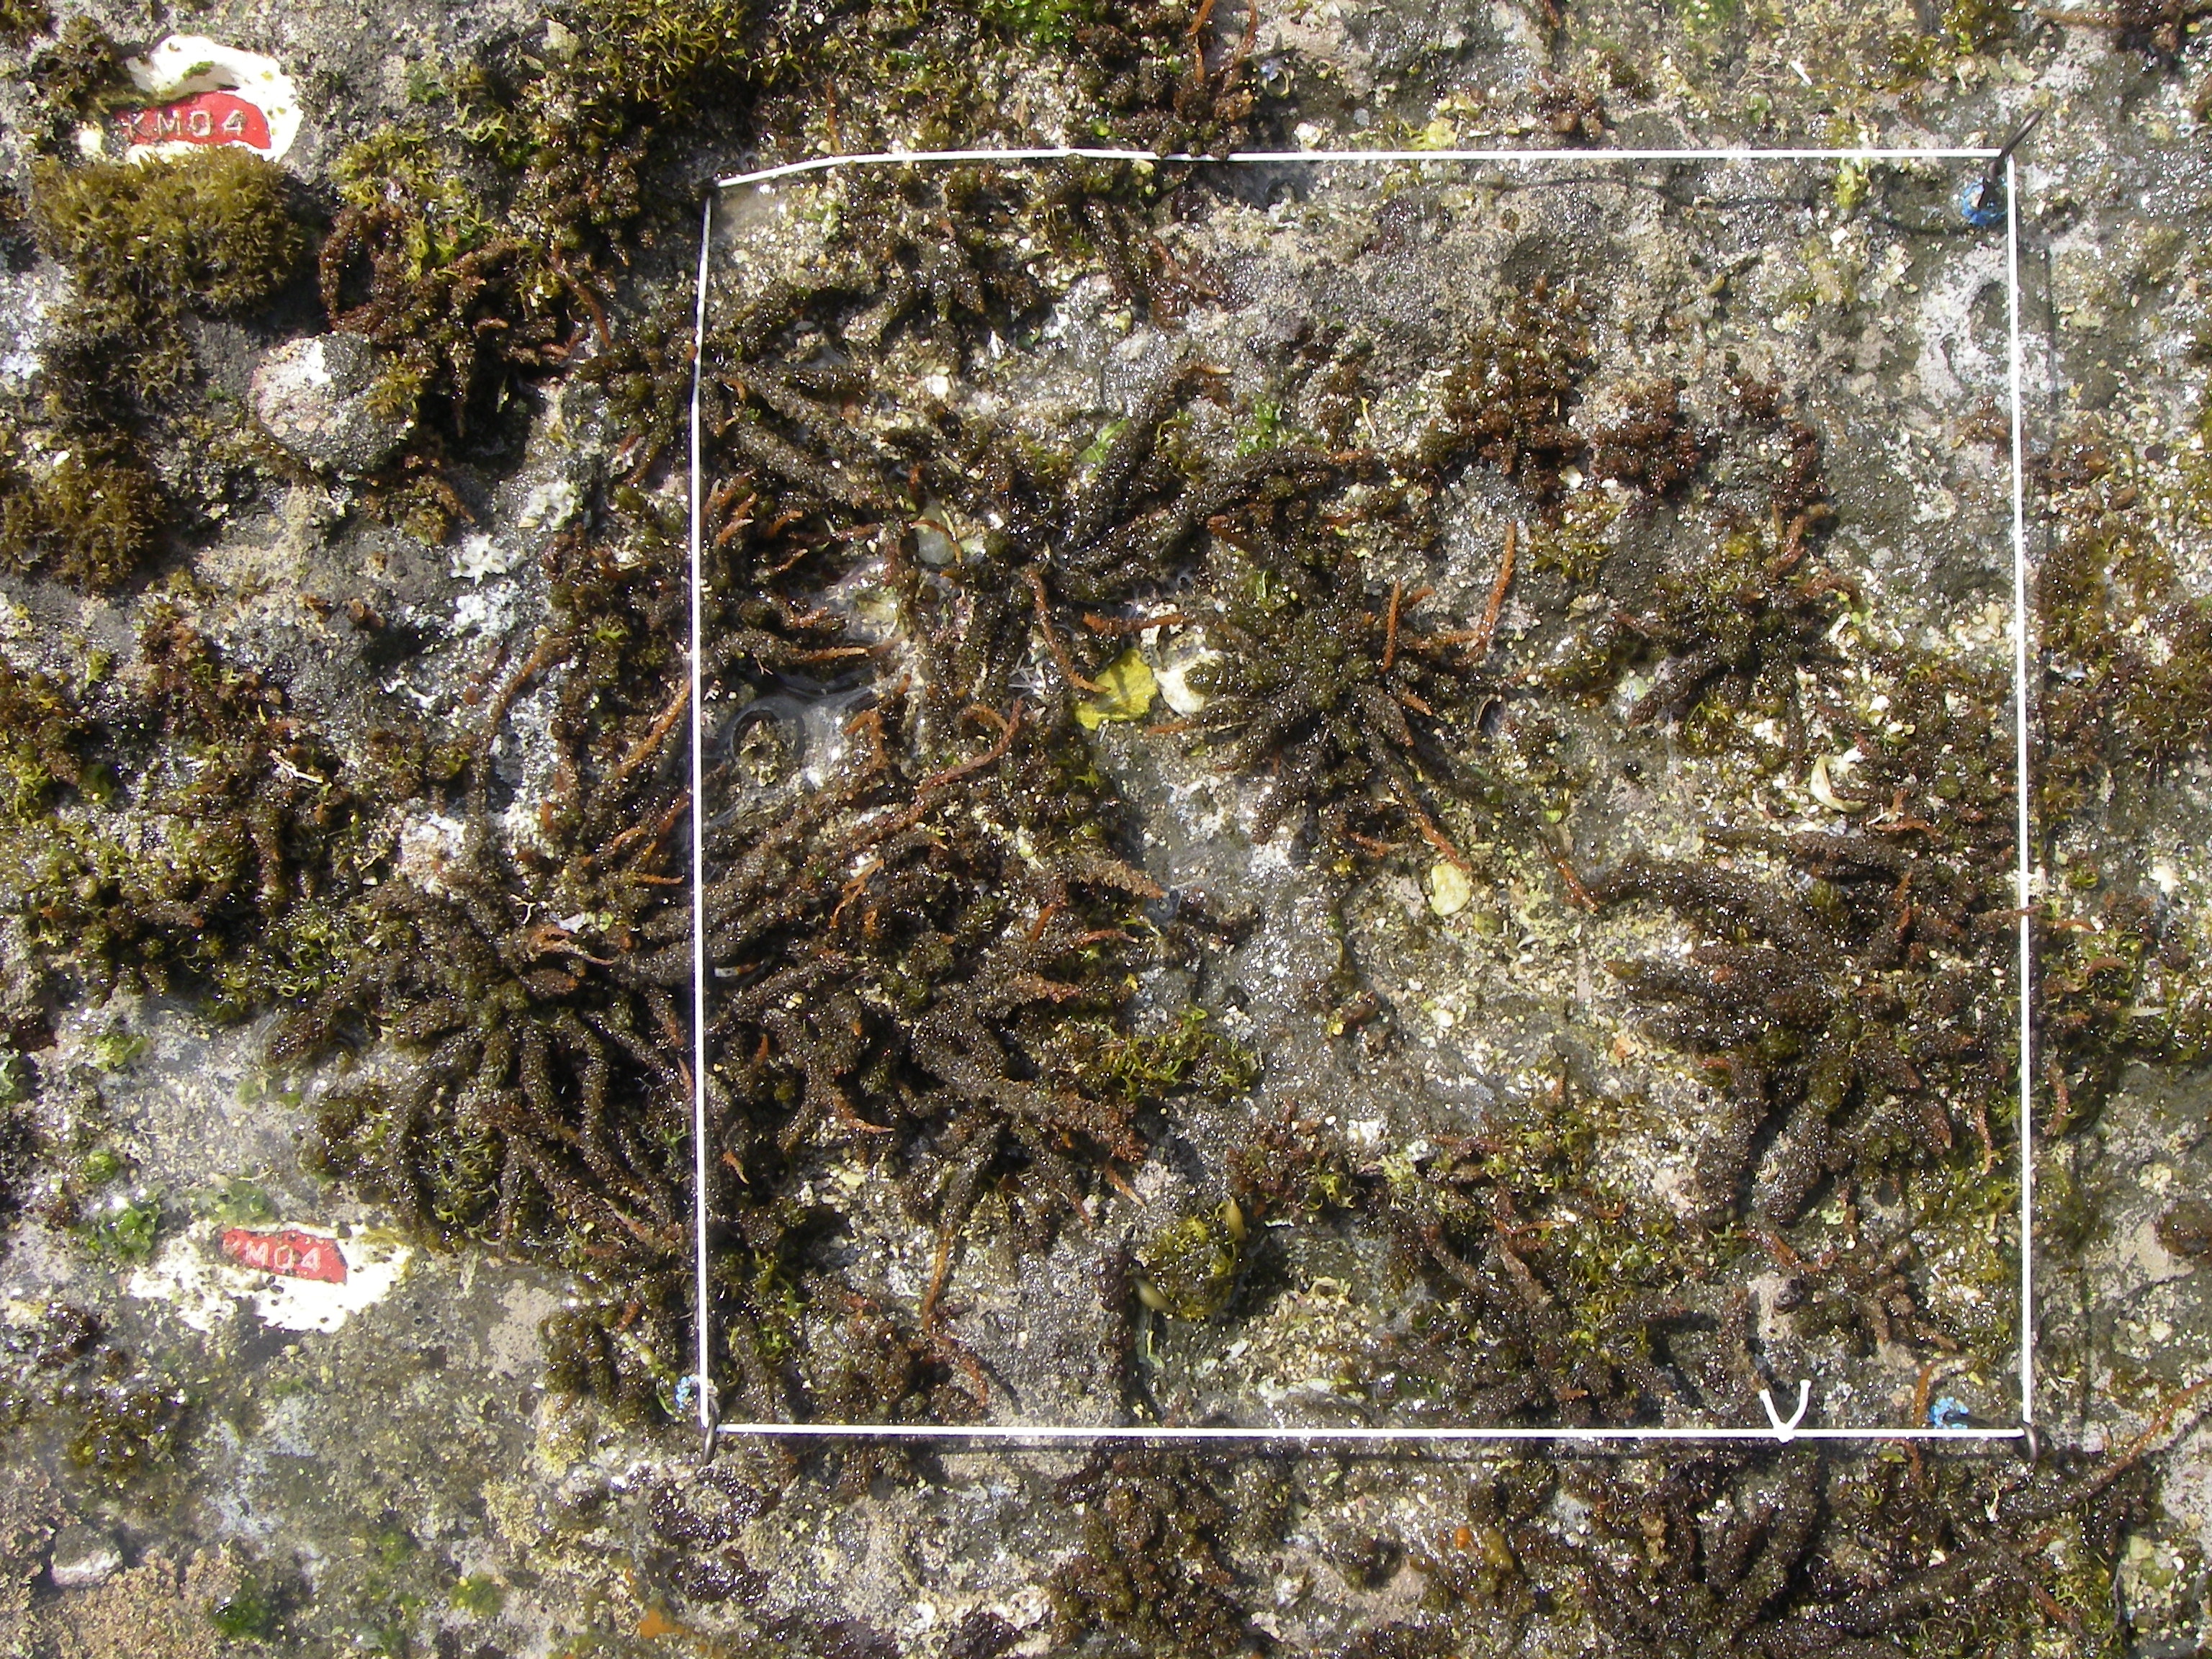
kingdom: Animalia
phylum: Arthropoda
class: Maxillopoda
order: Sessilia
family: Chthamalidae
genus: Chthamalus
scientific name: Chthamalus challengeri
